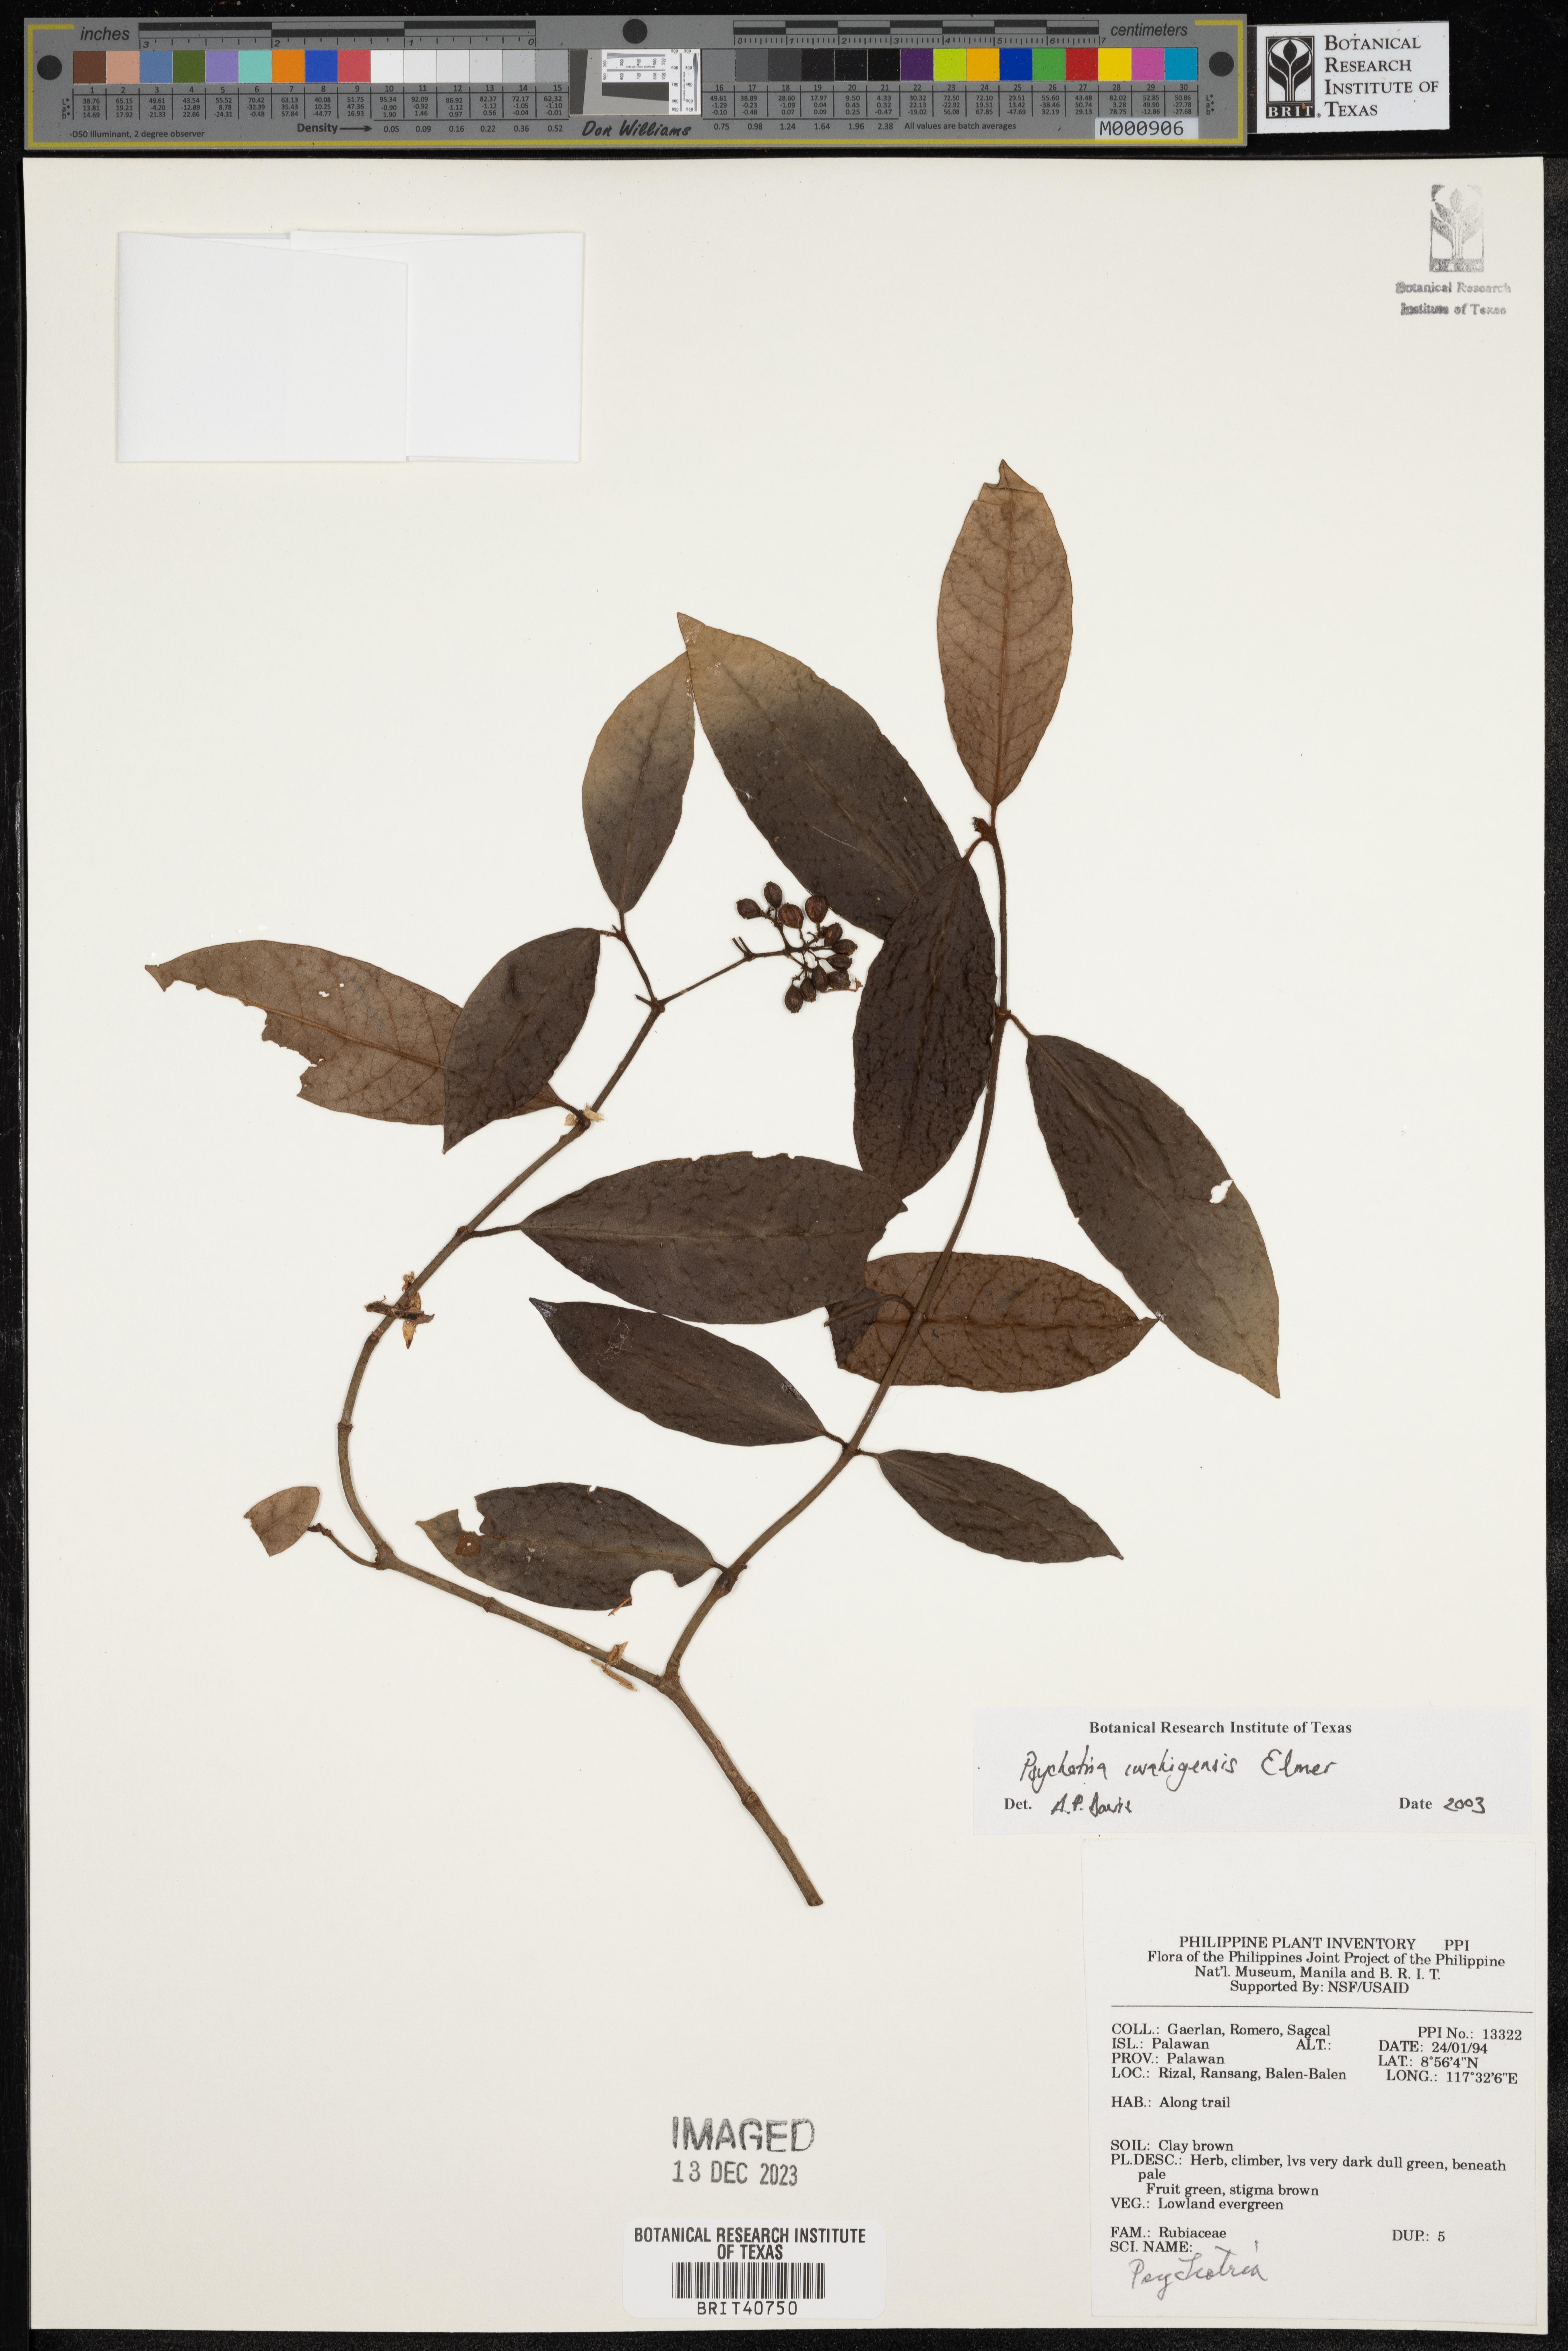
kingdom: Plantae
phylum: Tracheophyta
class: Magnoliopsida
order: Gentianales
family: Rubiaceae
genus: Psychotria
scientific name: Psychotria iwahigensis
